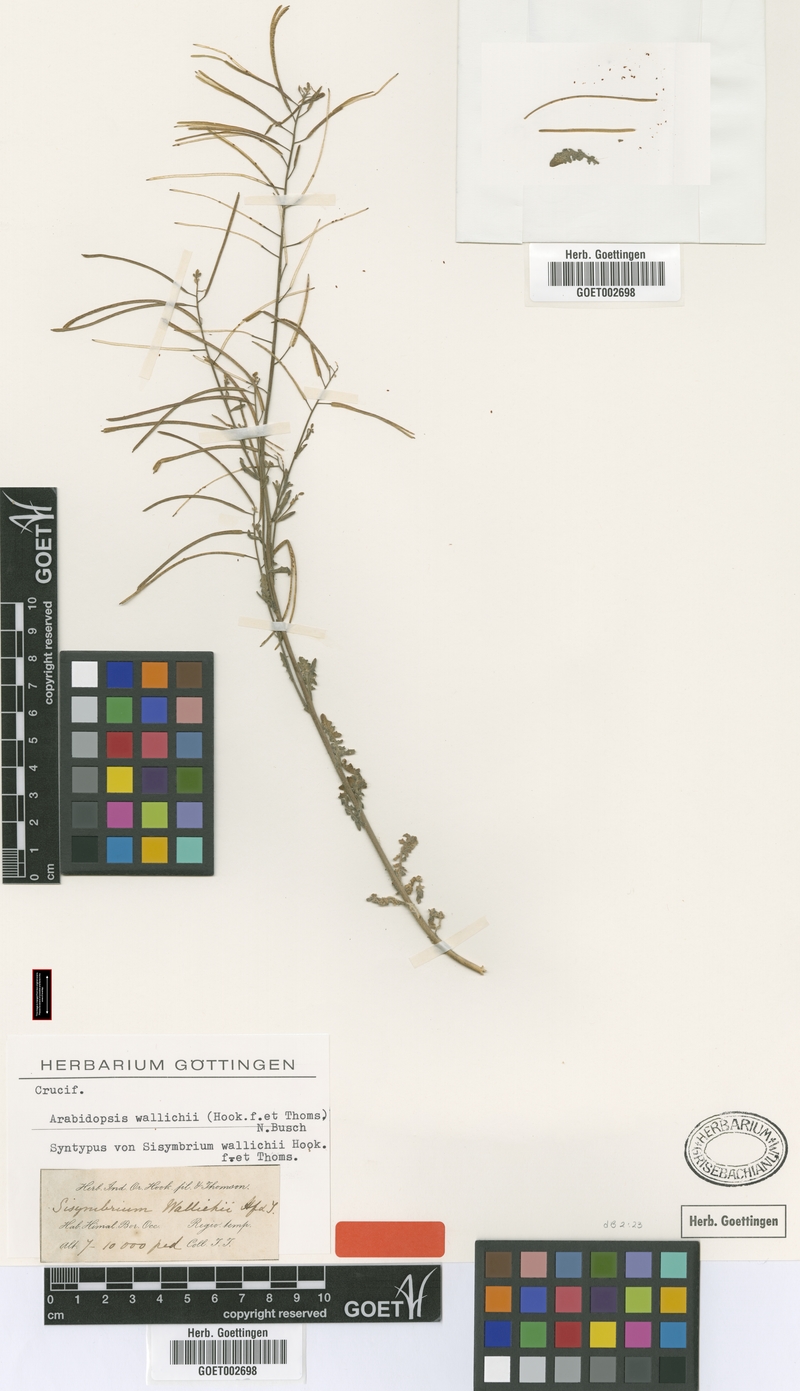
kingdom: Plantae
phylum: Tracheophyta
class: Magnoliopsida
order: Brassicales
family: Brassicaceae
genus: Crucihimalaya
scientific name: Crucihimalaya wallichii
